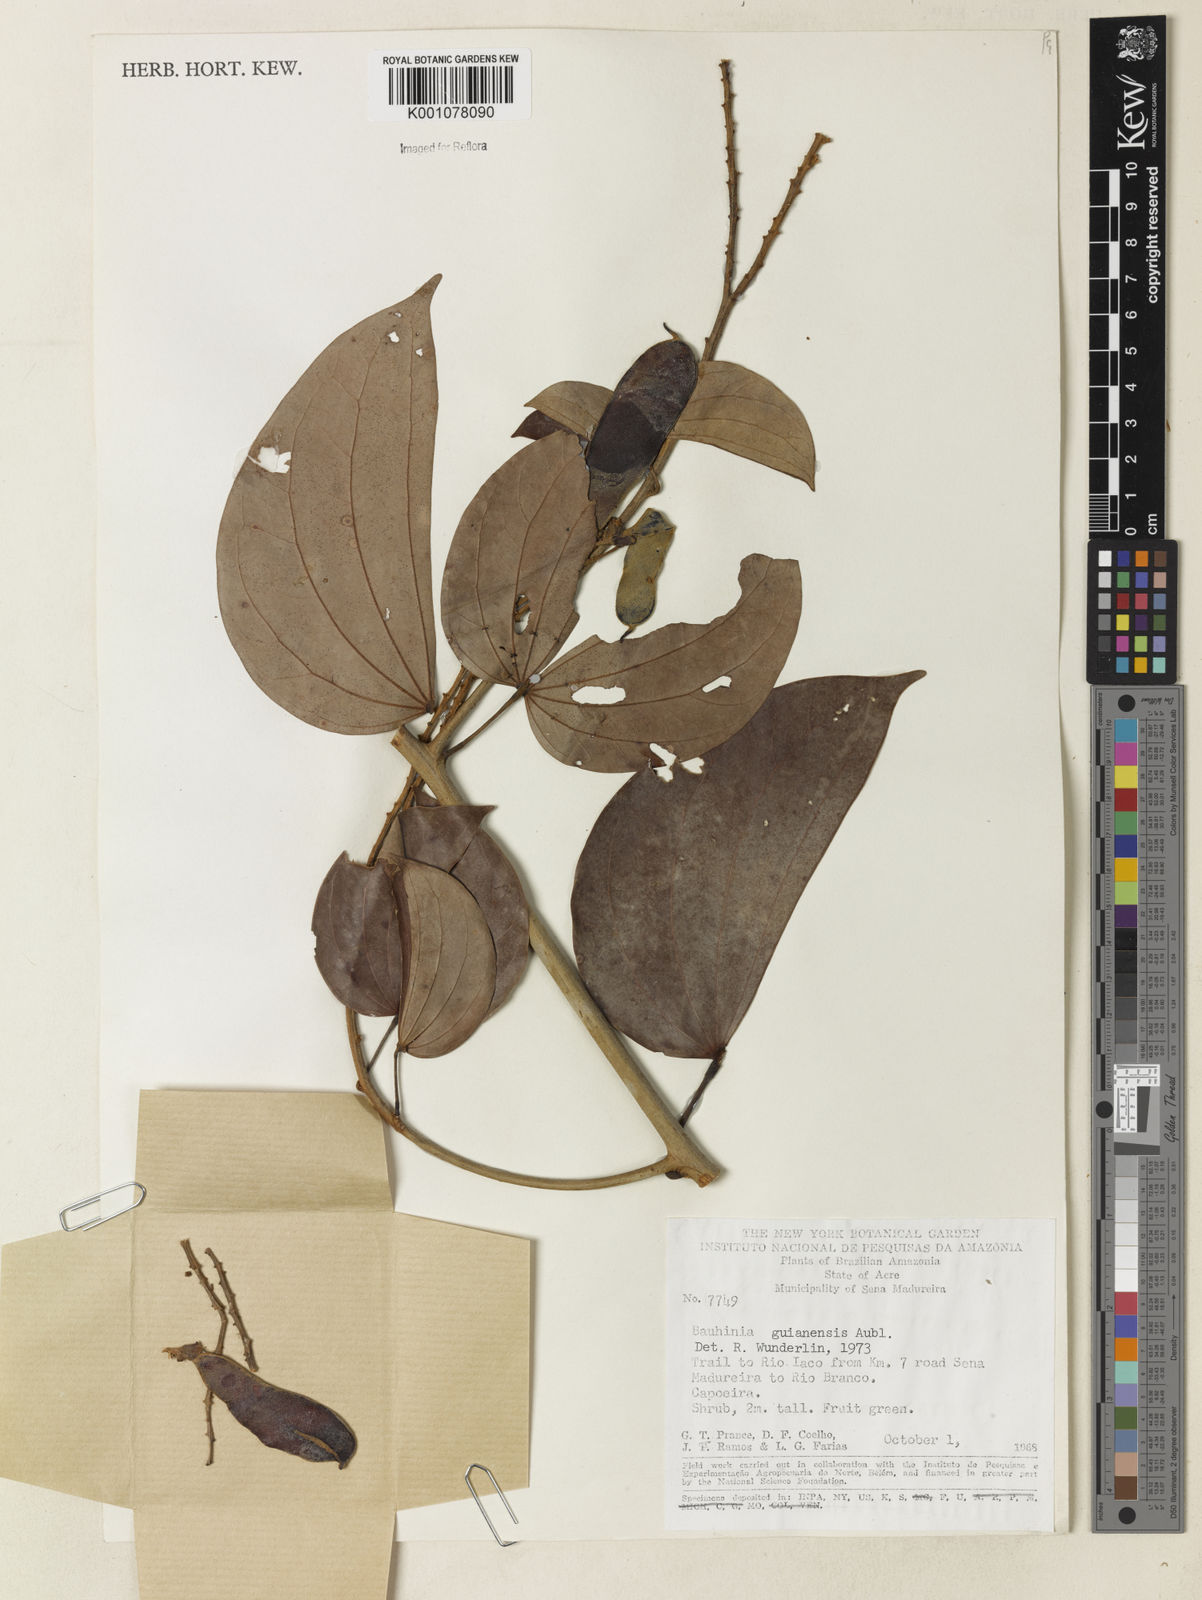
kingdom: Plantae
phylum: Tracheophyta
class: Magnoliopsida
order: Fabales
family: Fabaceae
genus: Schnella
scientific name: Schnella guianensis
